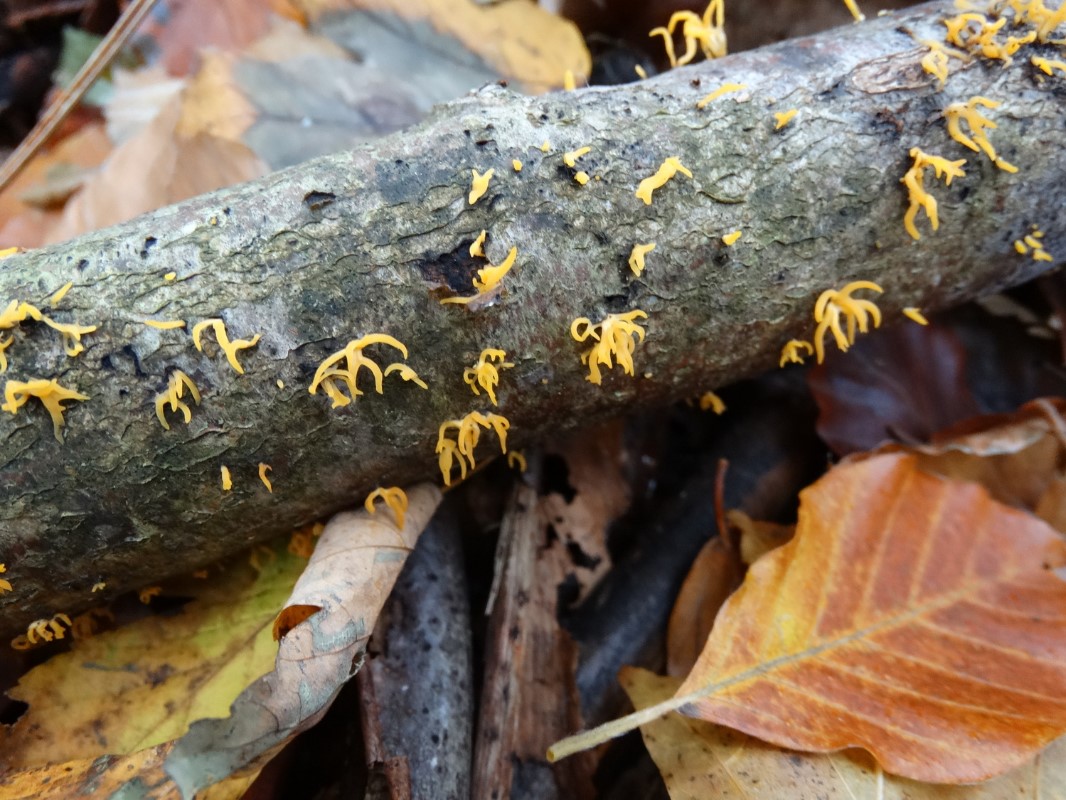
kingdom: Fungi
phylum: Basidiomycota
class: Dacrymycetes
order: Dacrymycetales
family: Dacrymycetaceae
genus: Calocera
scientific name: Calocera cornea
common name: liden guldgaffel
